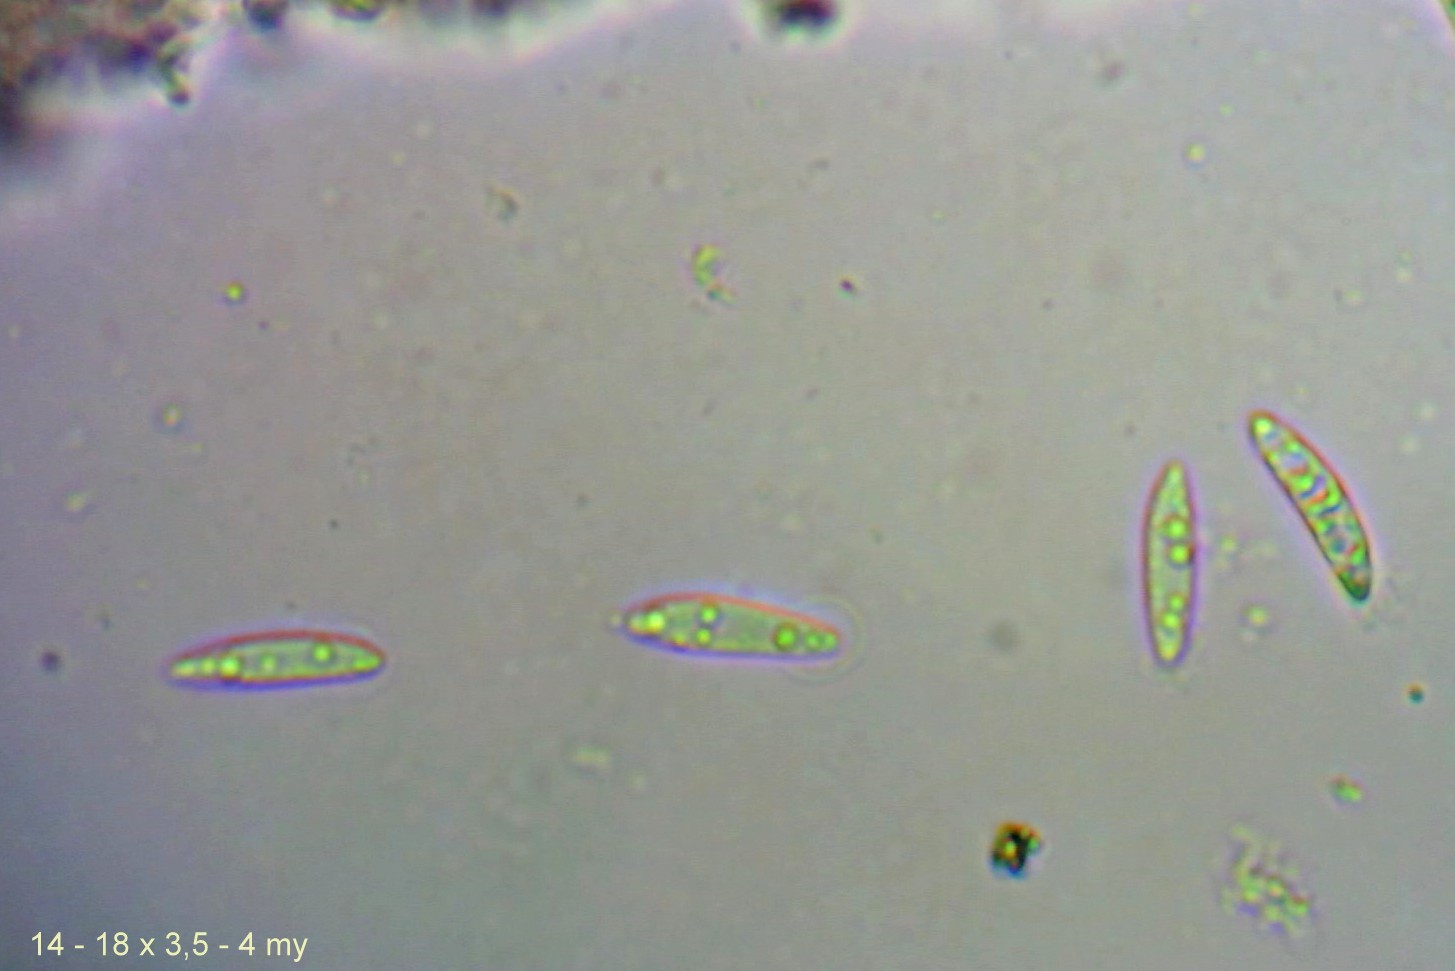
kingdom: Fungi
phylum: Ascomycota
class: Leotiomycetes
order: Helotiales
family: Helotiaceae
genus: Hymenoscyphus
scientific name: Hymenoscyphus epiphyllus
